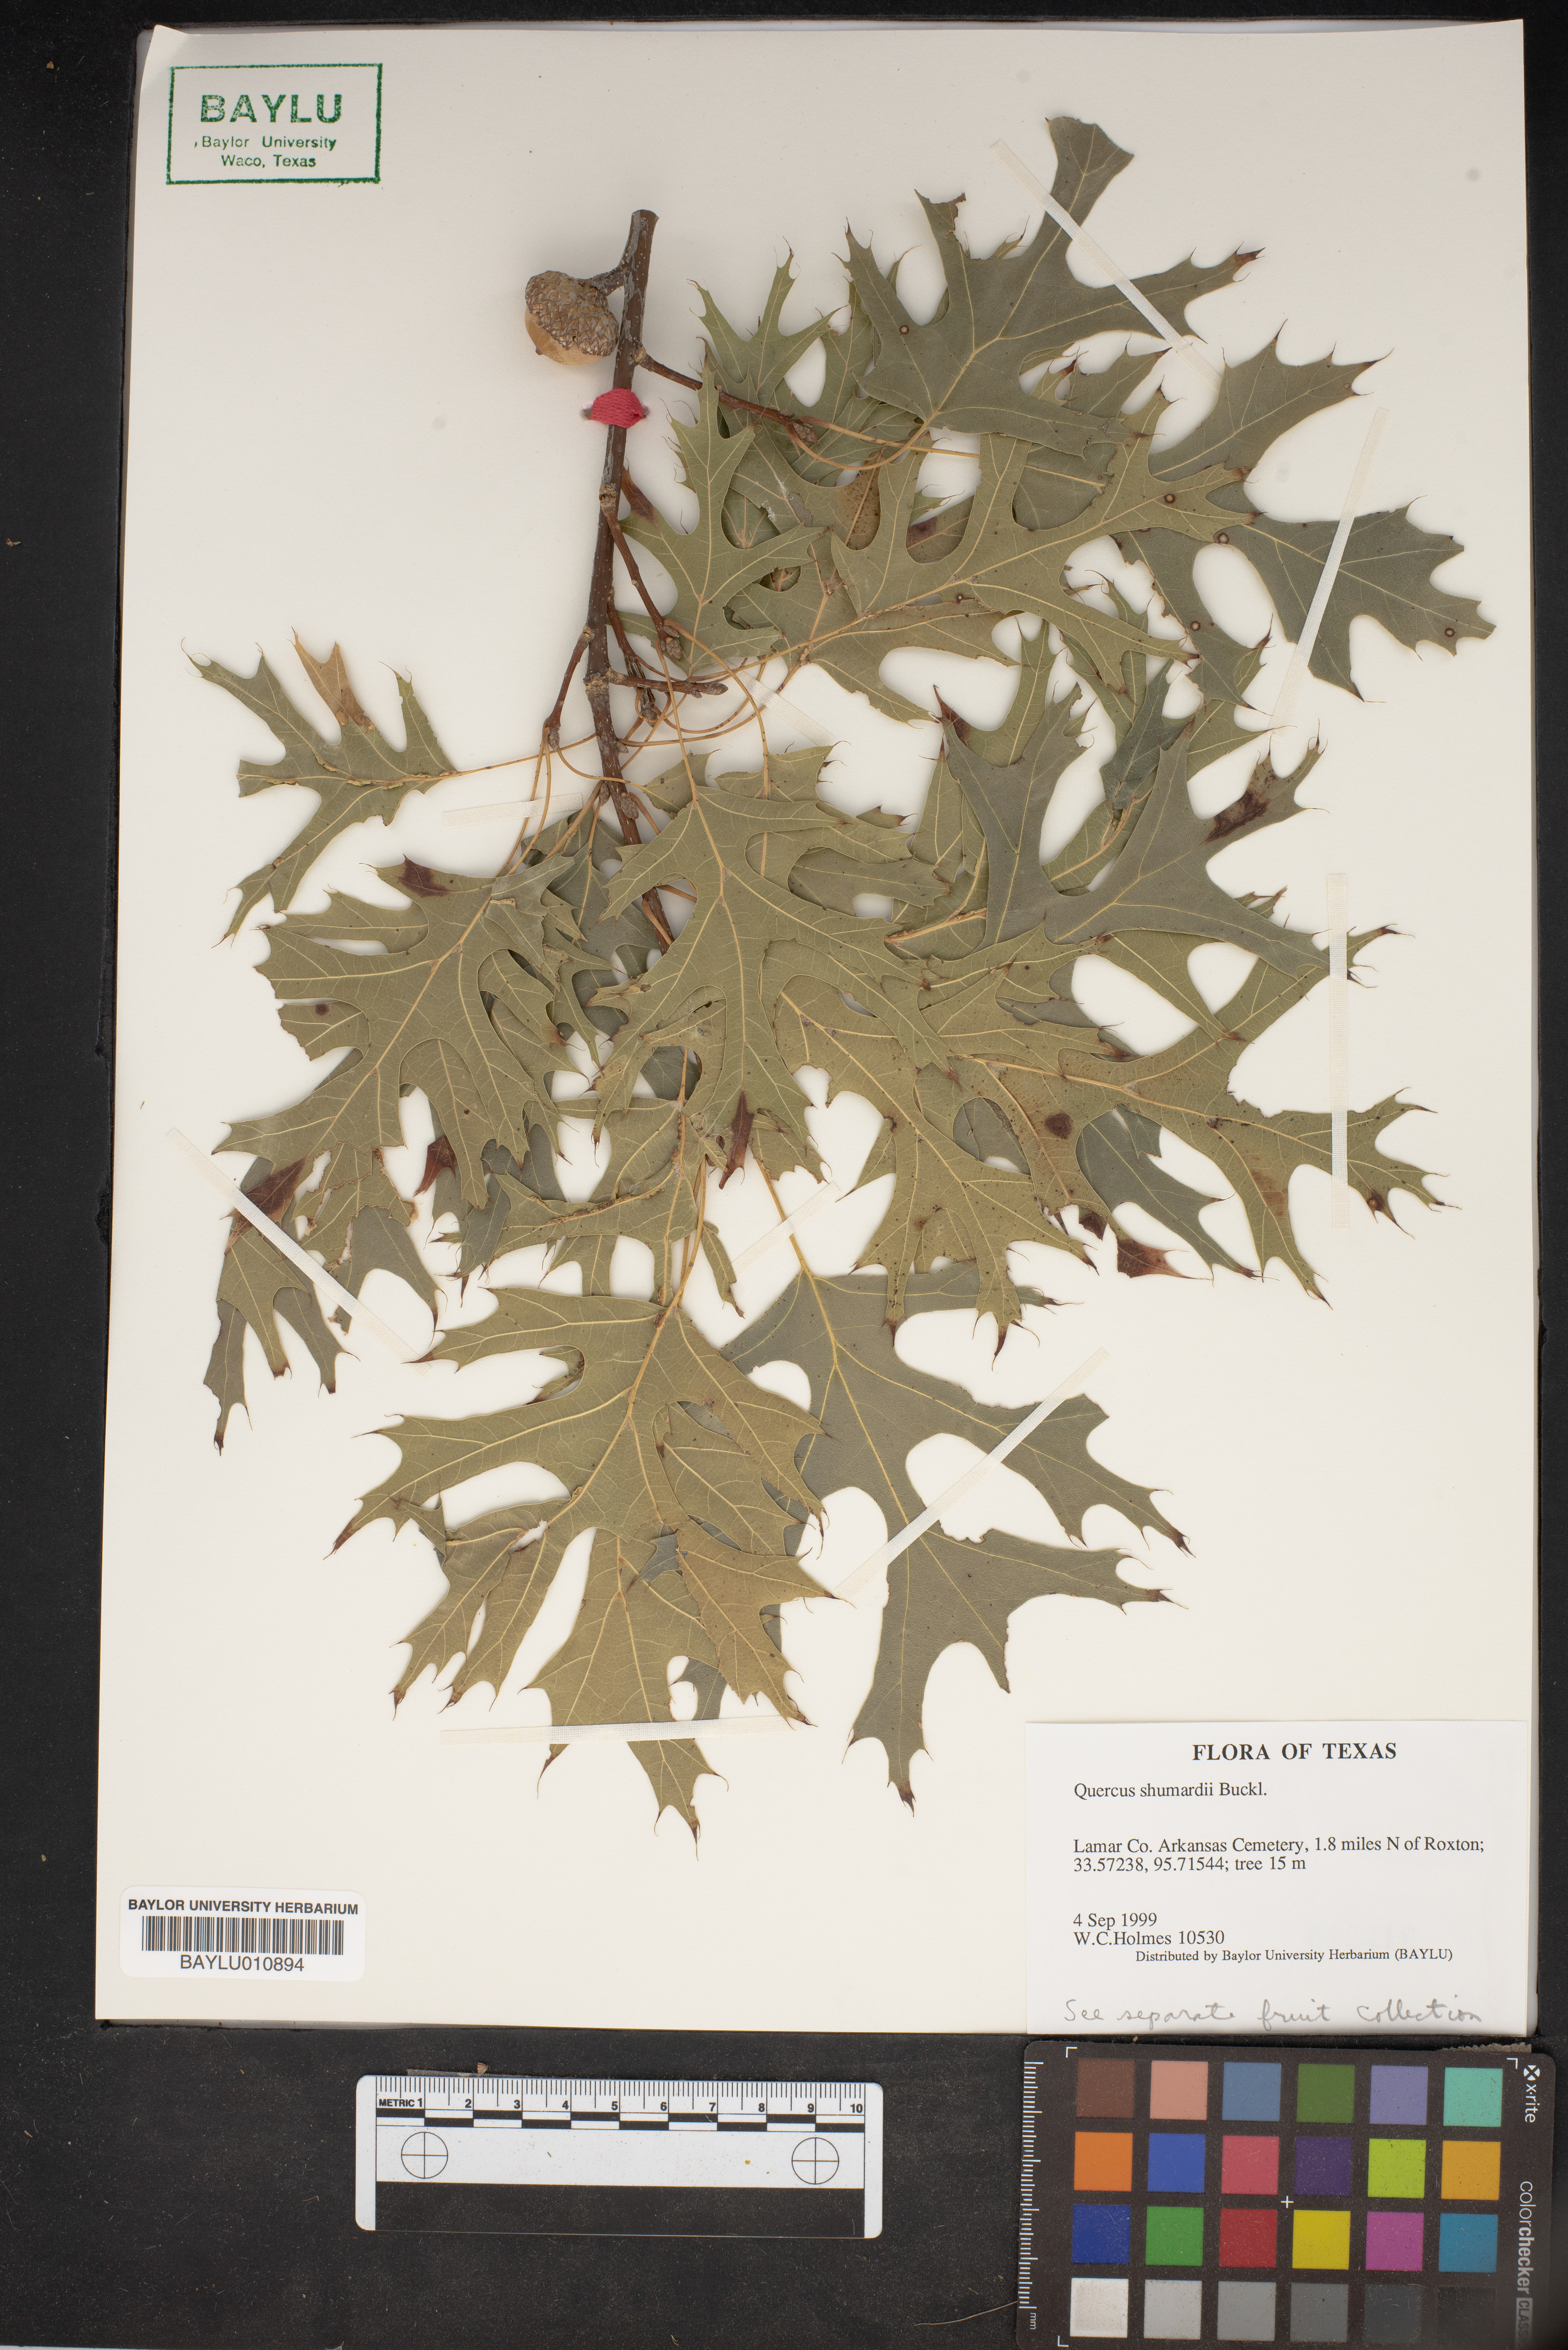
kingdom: Plantae
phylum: Tracheophyta
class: Magnoliopsida
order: Fagales
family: Fagaceae
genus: Quercus
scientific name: Quercus shumardii
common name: Shumard oak
